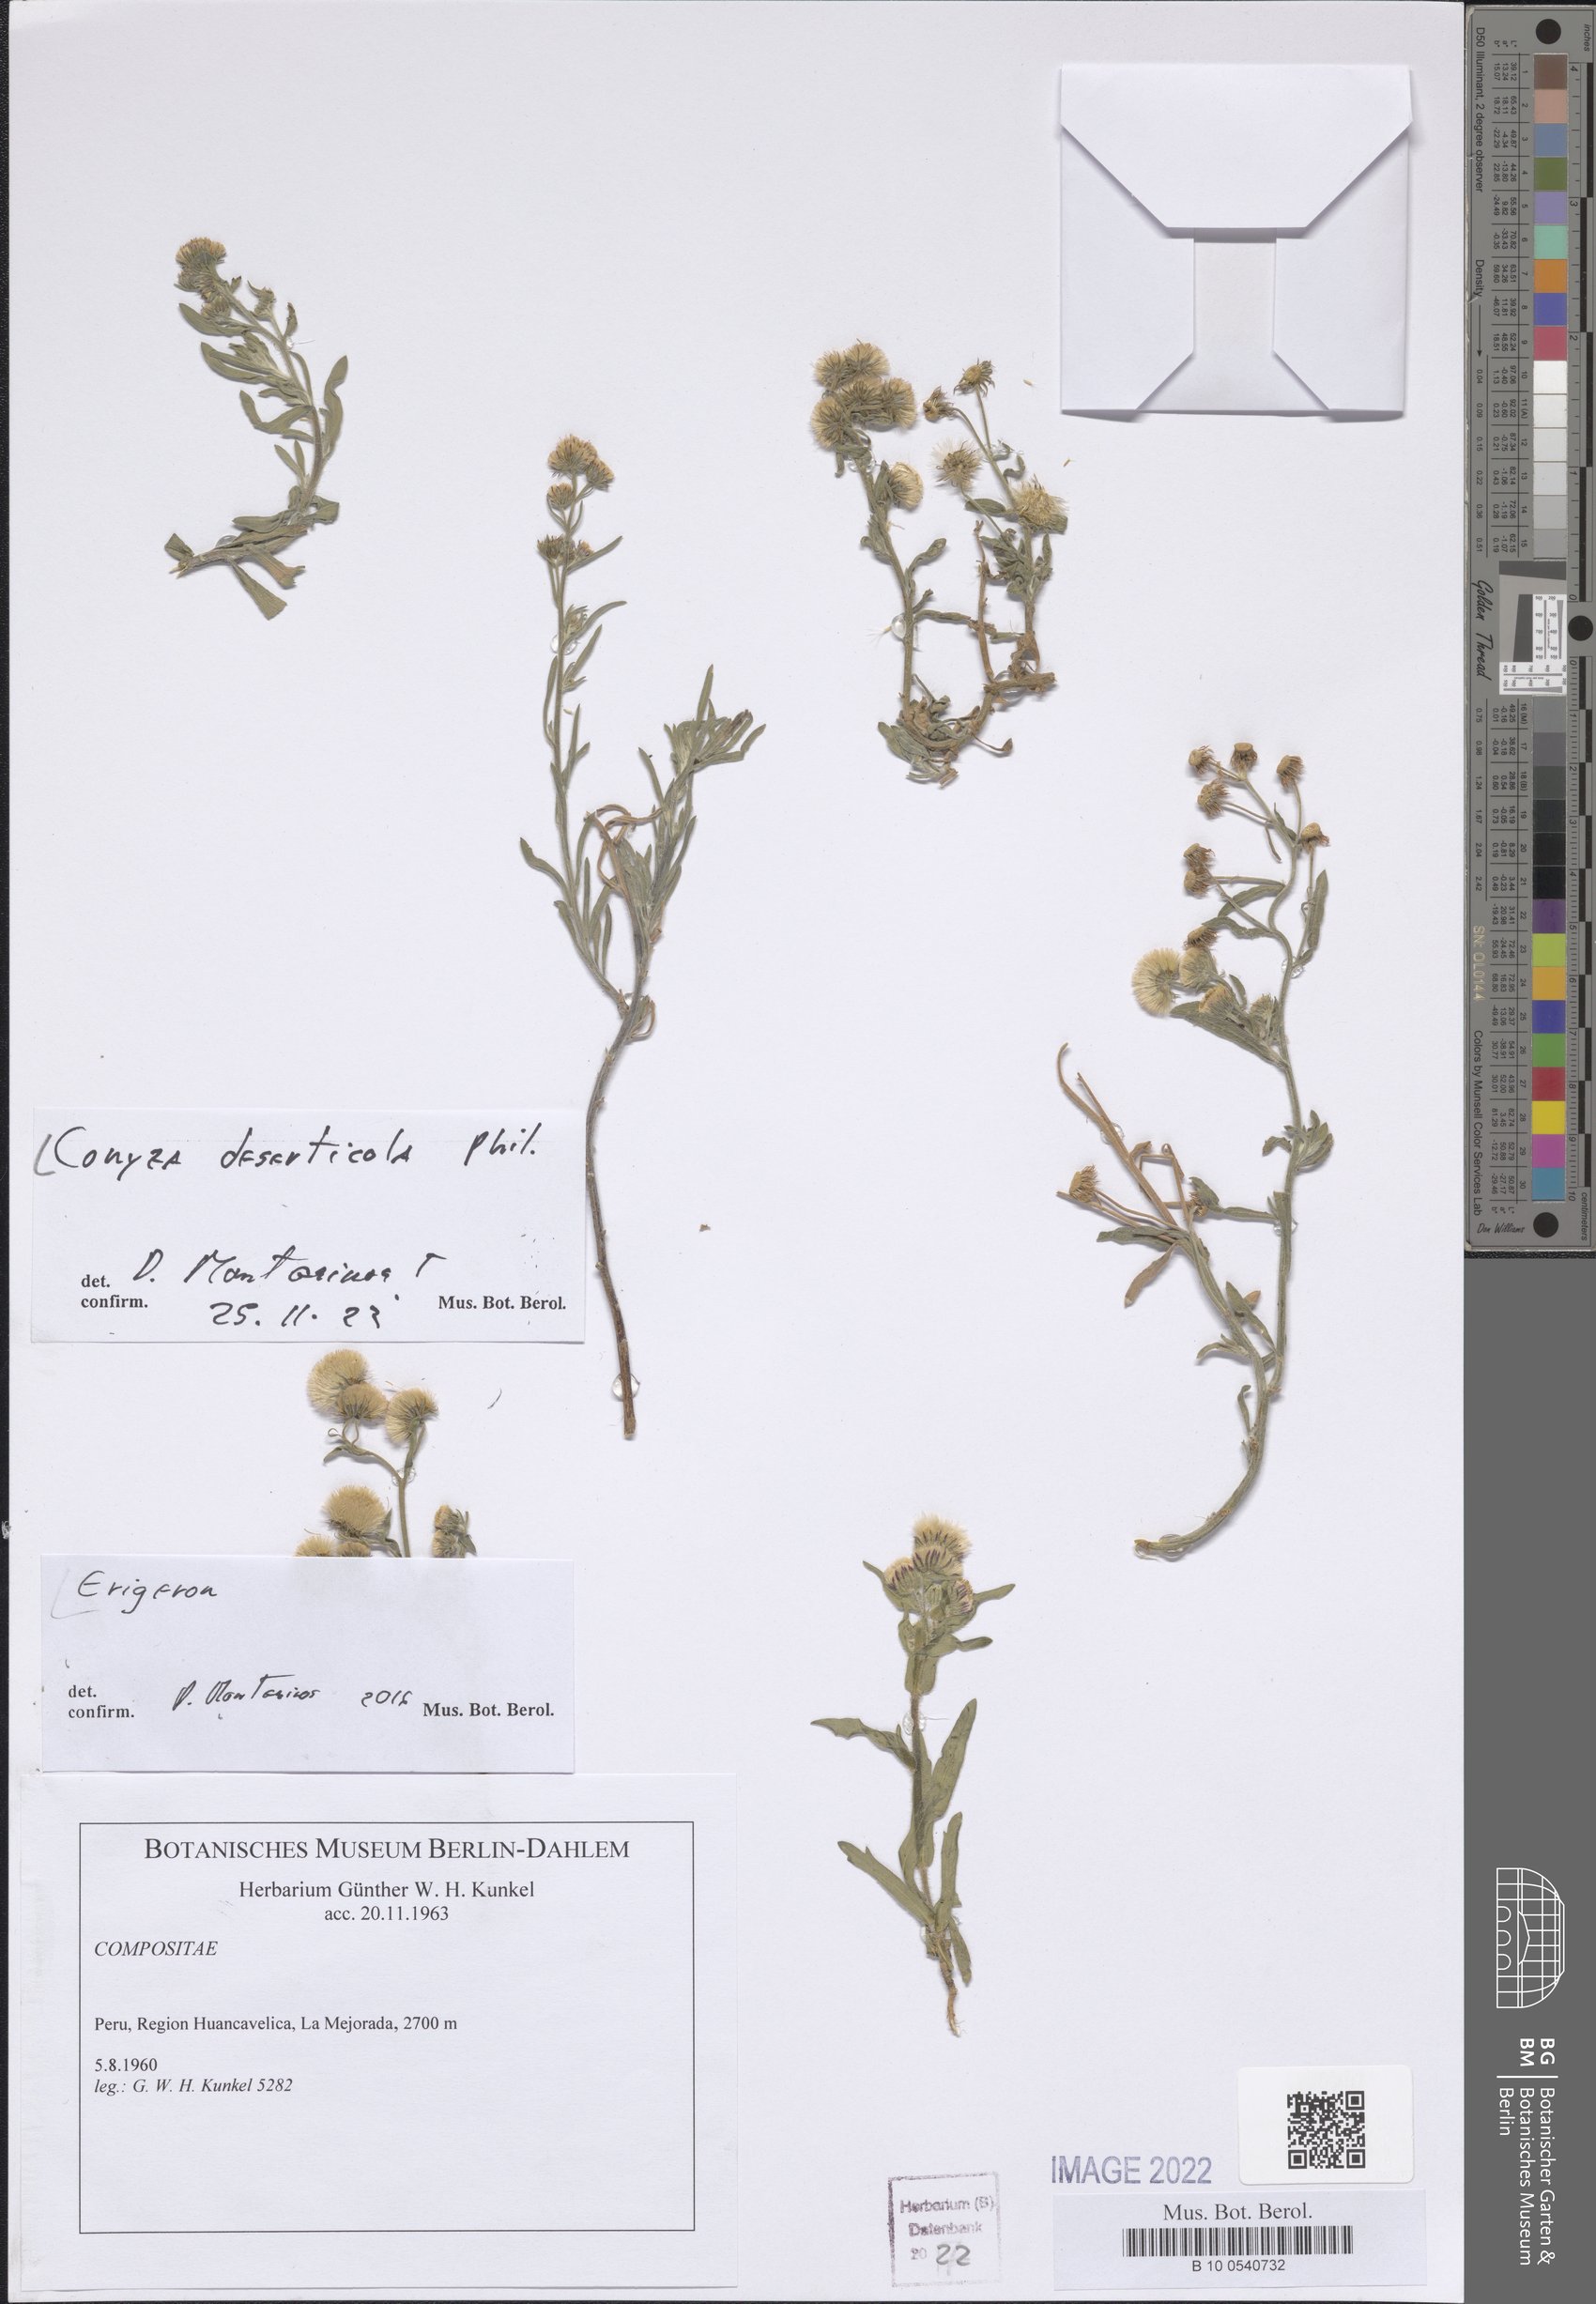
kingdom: Plantae
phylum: Tracheophyta
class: Magnoliopsida
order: Asterales
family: Asteraceae
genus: Erigeron
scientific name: Erigeron deserticolus
